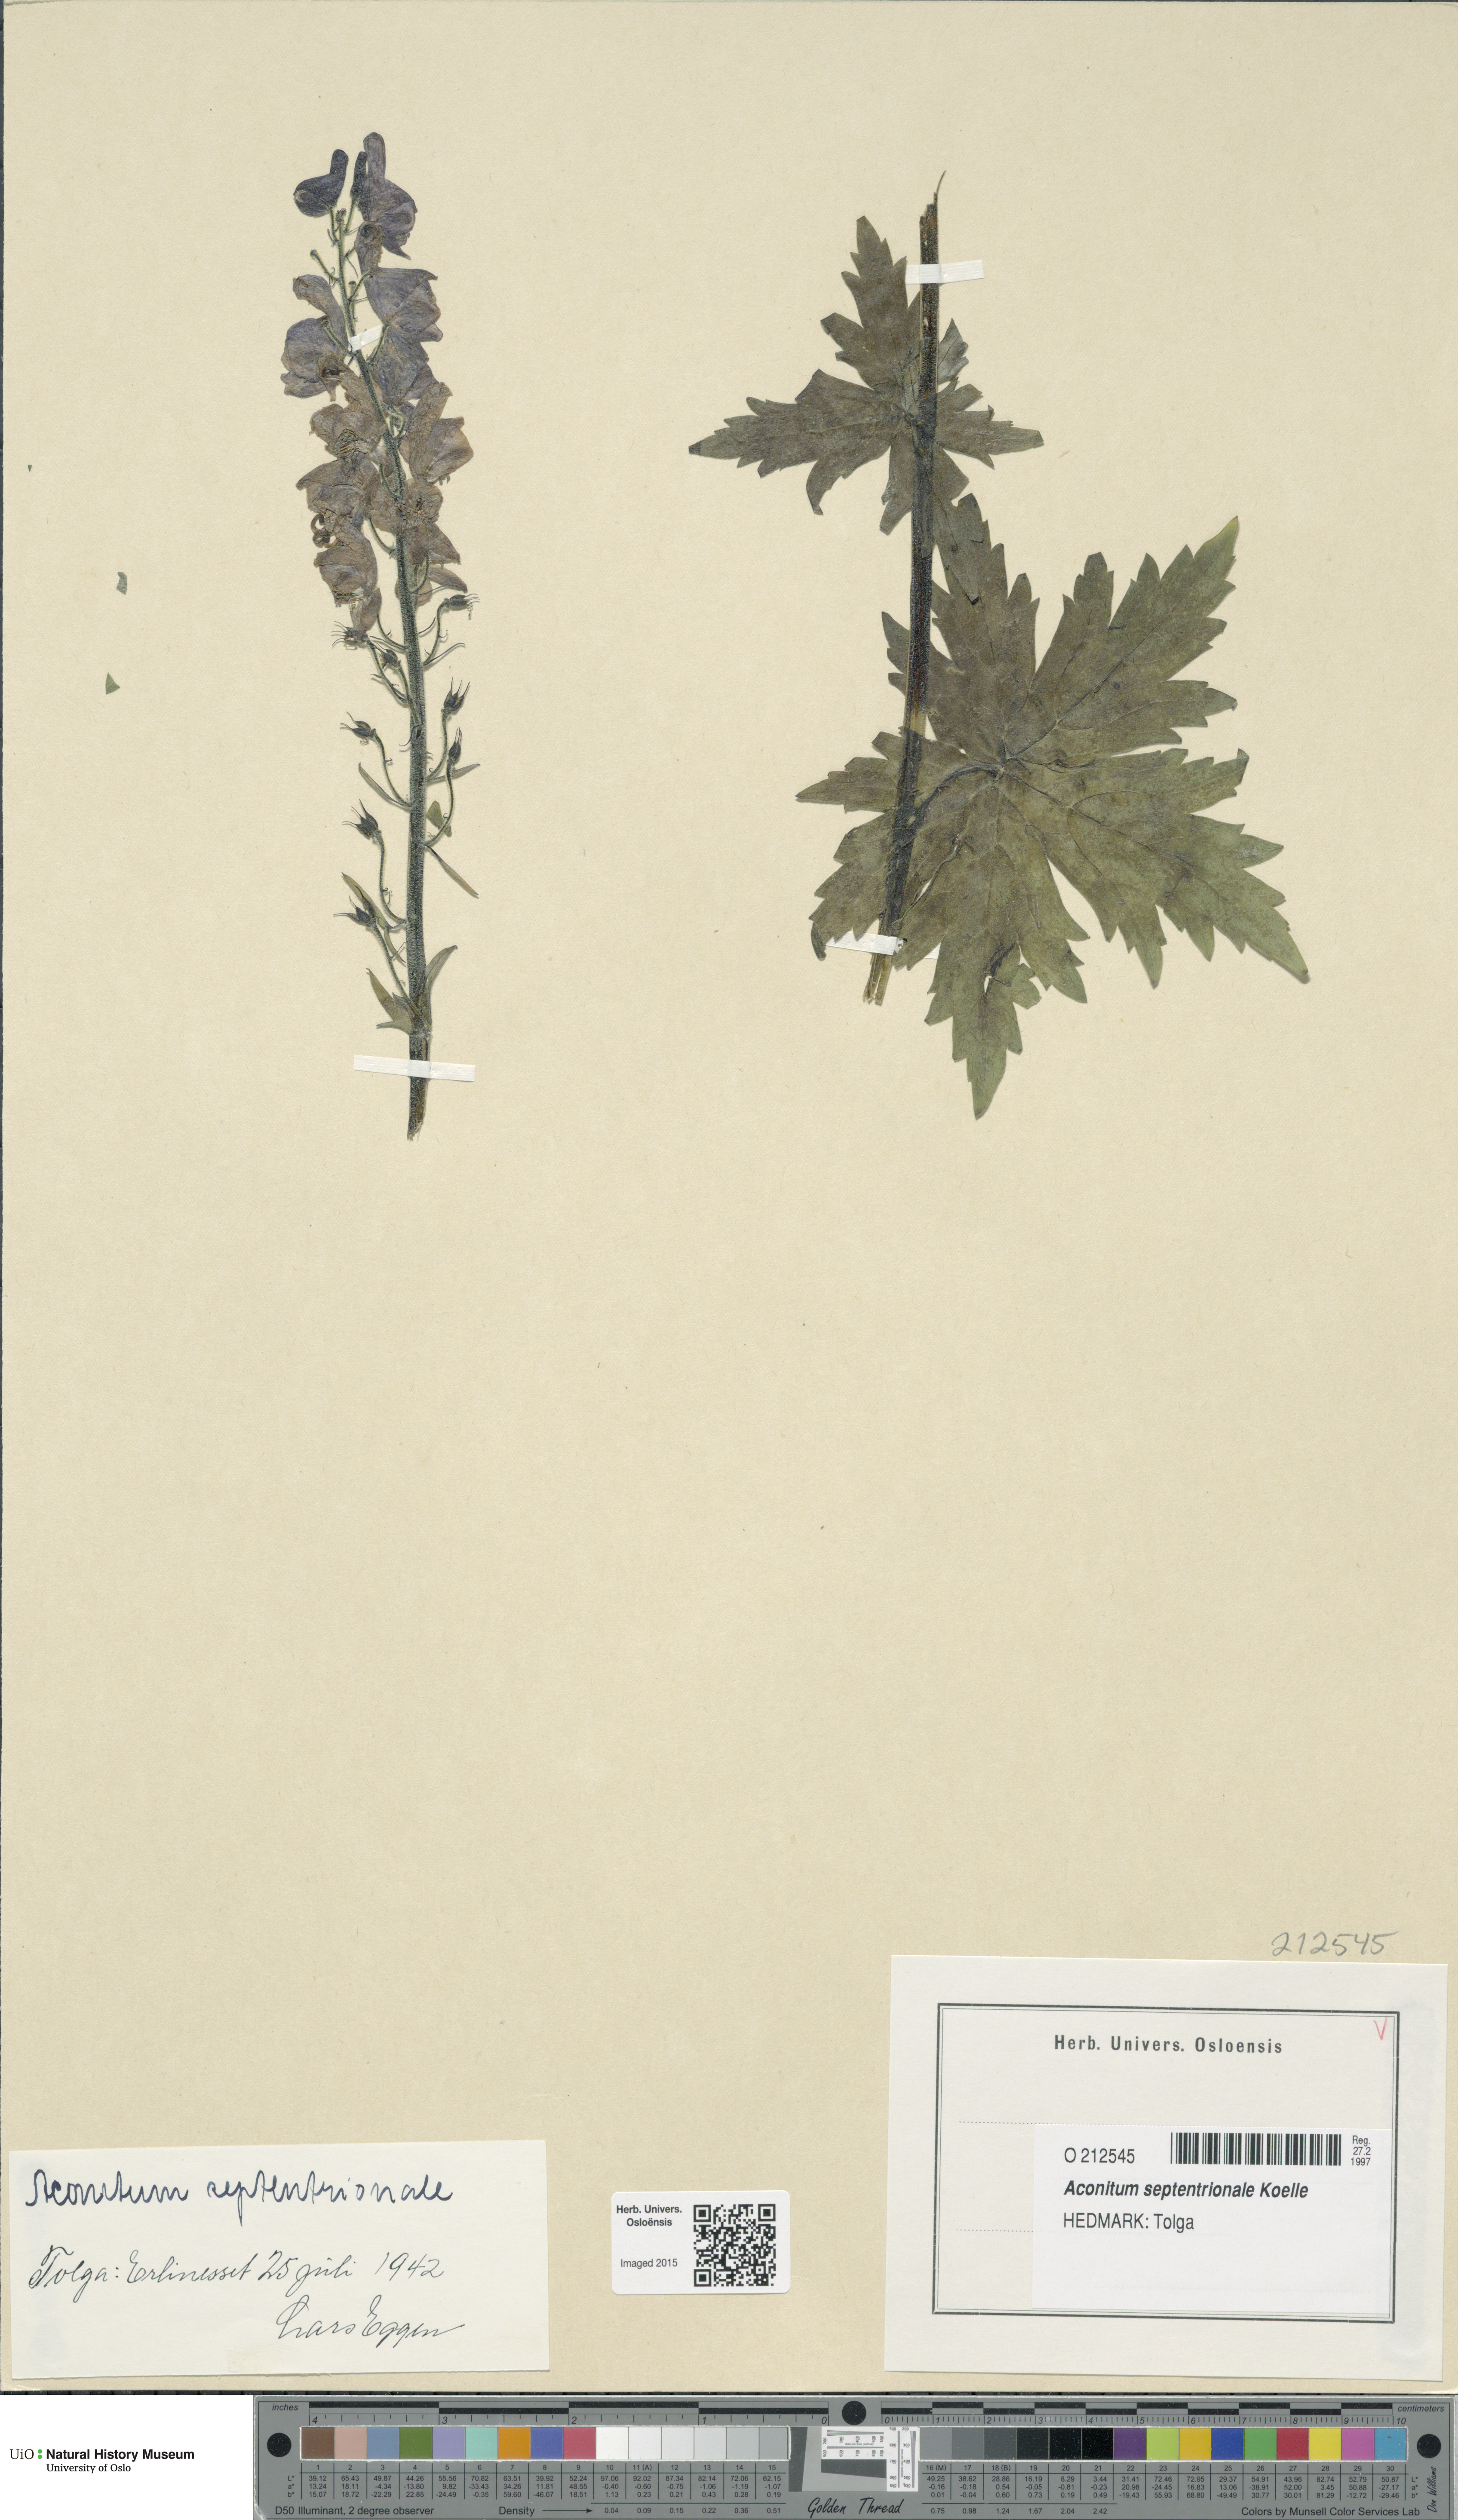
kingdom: Plantae
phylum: Tracheophyta
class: Magnoliopsida
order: Ranunculales
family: Ranunculaceae
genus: Aconitum
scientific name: Aconitum septentrionale
